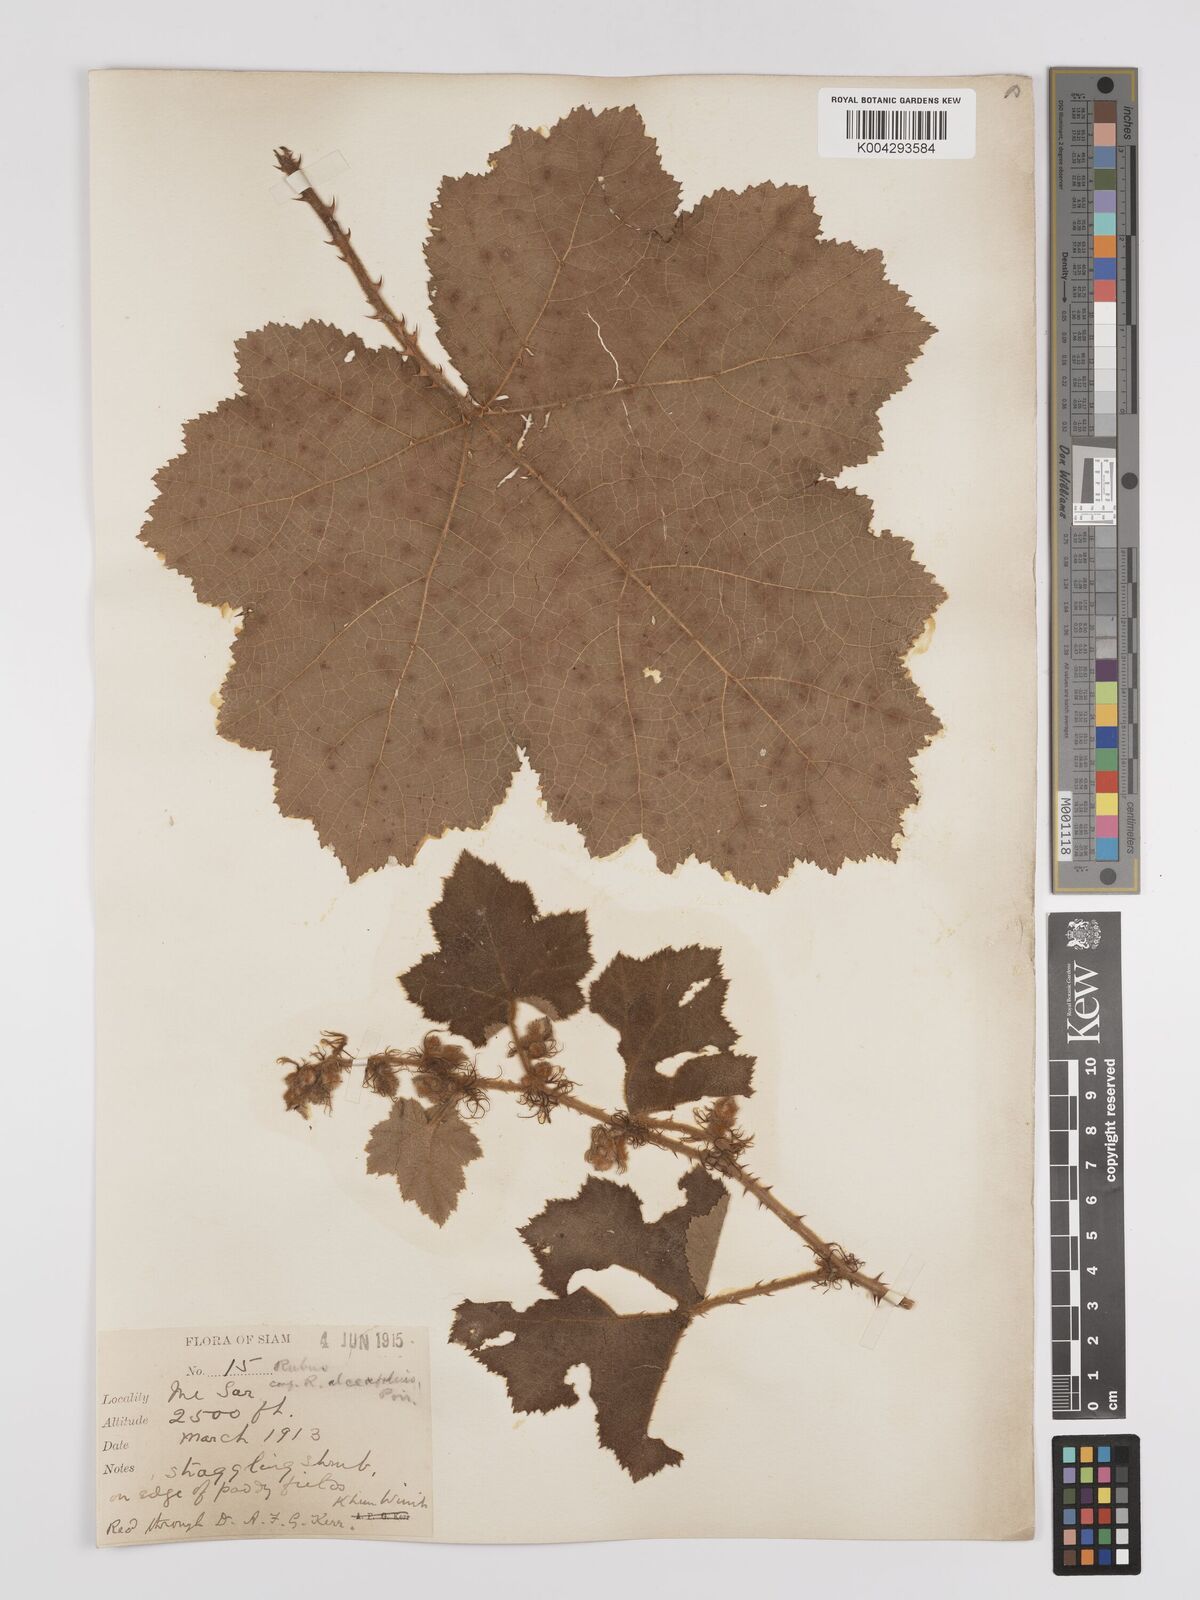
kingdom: Plantae
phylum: Tracheophyta
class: Magnoliopsida
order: Rosales
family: Rosaceae
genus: Rubus
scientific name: Rubus alceifolius
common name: Giant bramble
